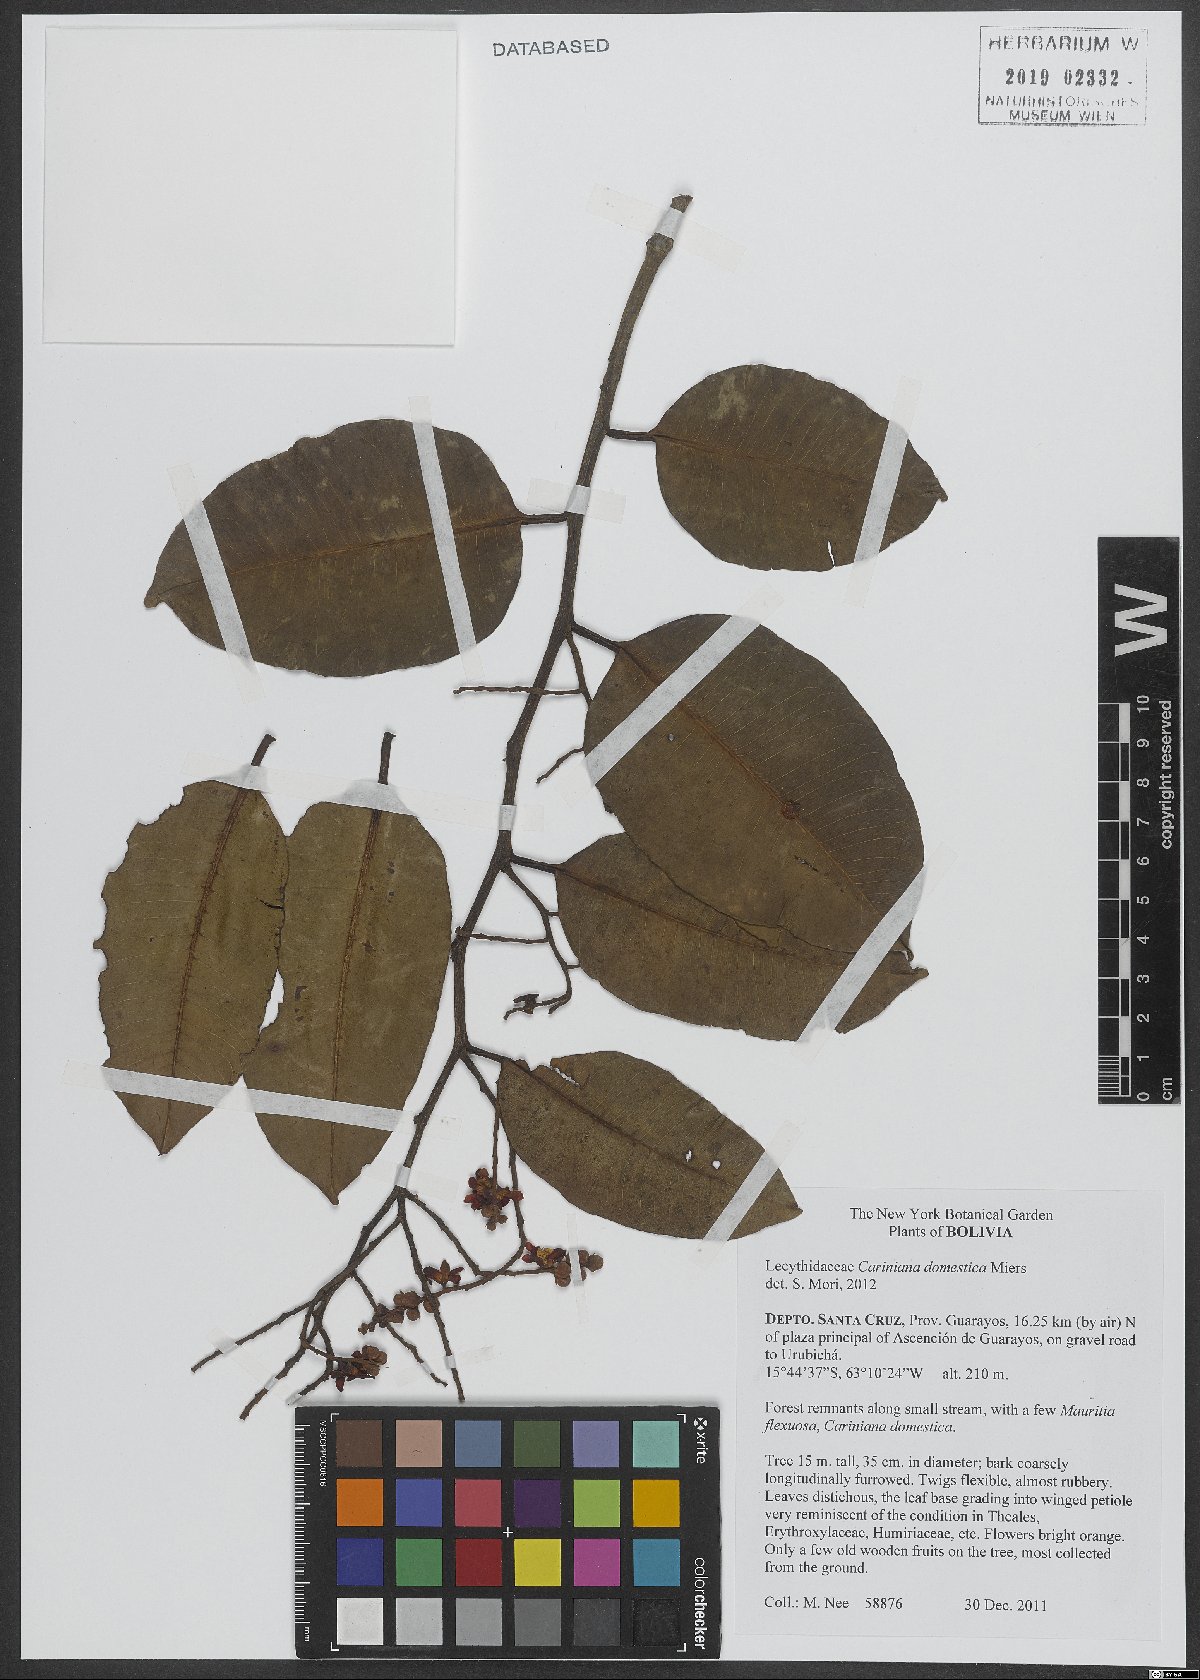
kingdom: Plantae
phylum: Tracheophyta
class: Magnoliopsida
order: Ericales
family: Lecythidaceae
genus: Cariniana
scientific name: Cariniana domestica
